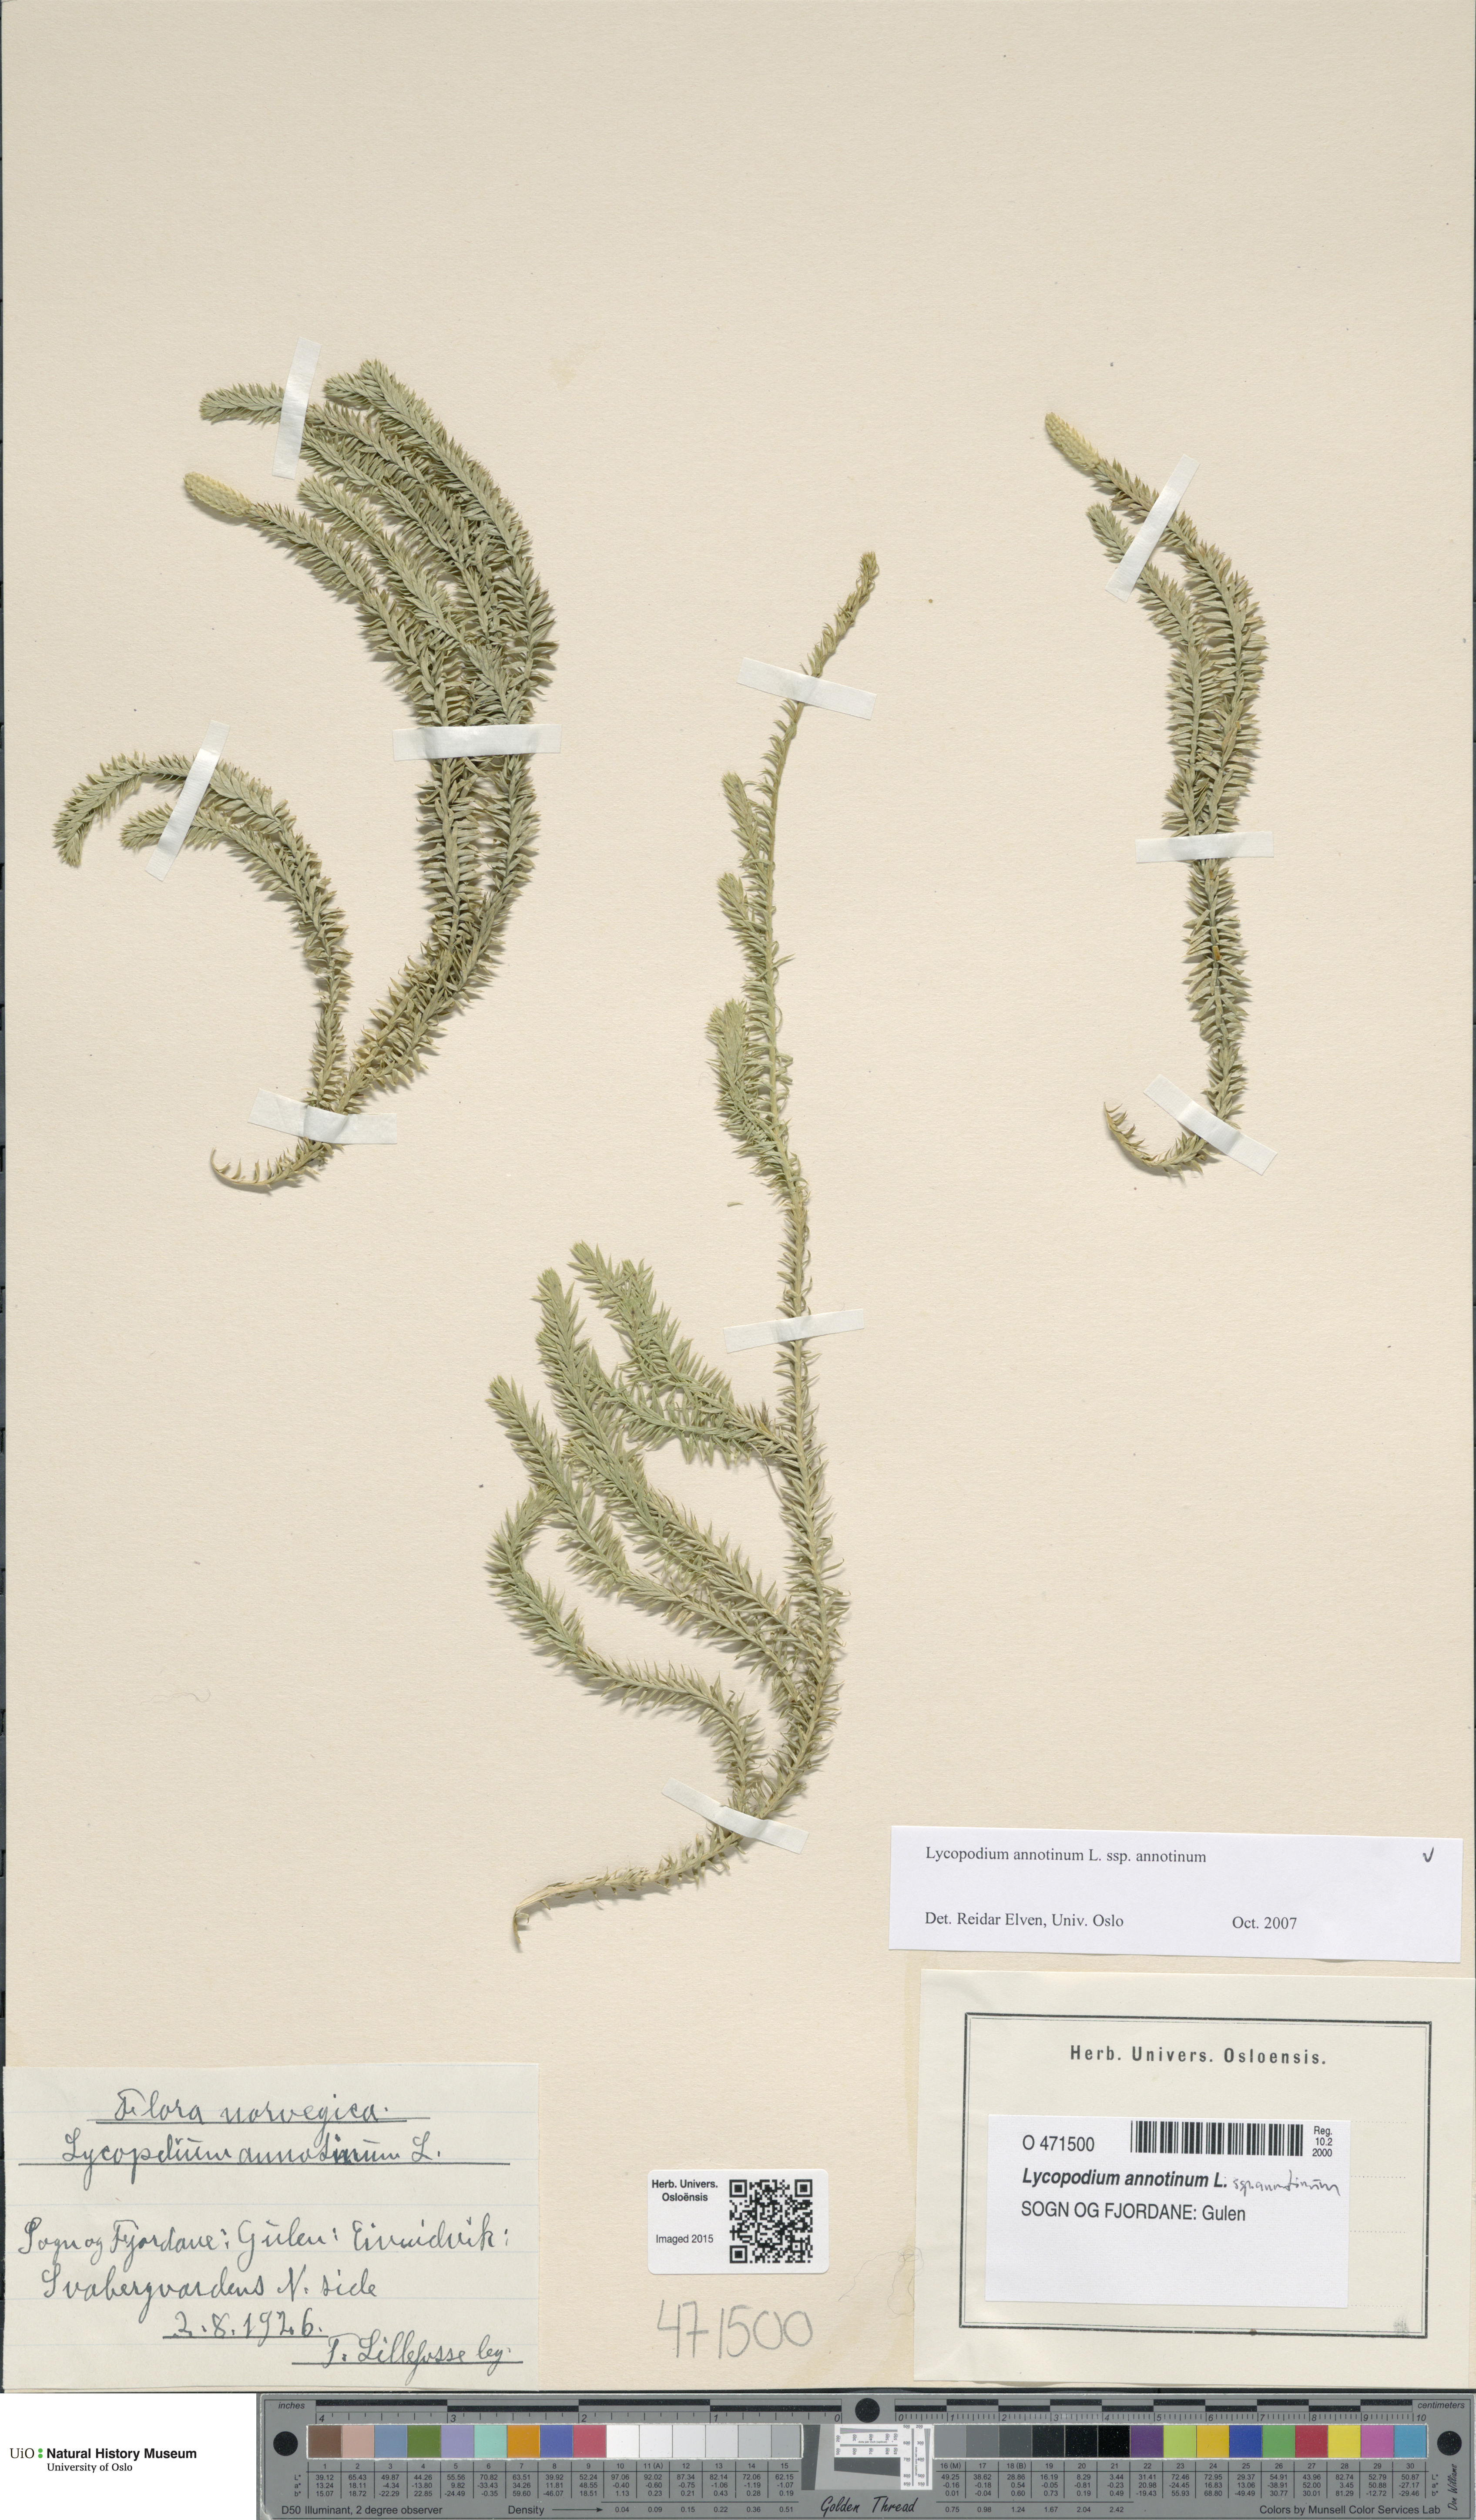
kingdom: Plantae
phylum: Tracheophyta
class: Lycopodiopsida
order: Lycopodiales
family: Lycopodiaceae
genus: Spinulum
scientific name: Spinulum annotinum
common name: Interrupted club-moss
